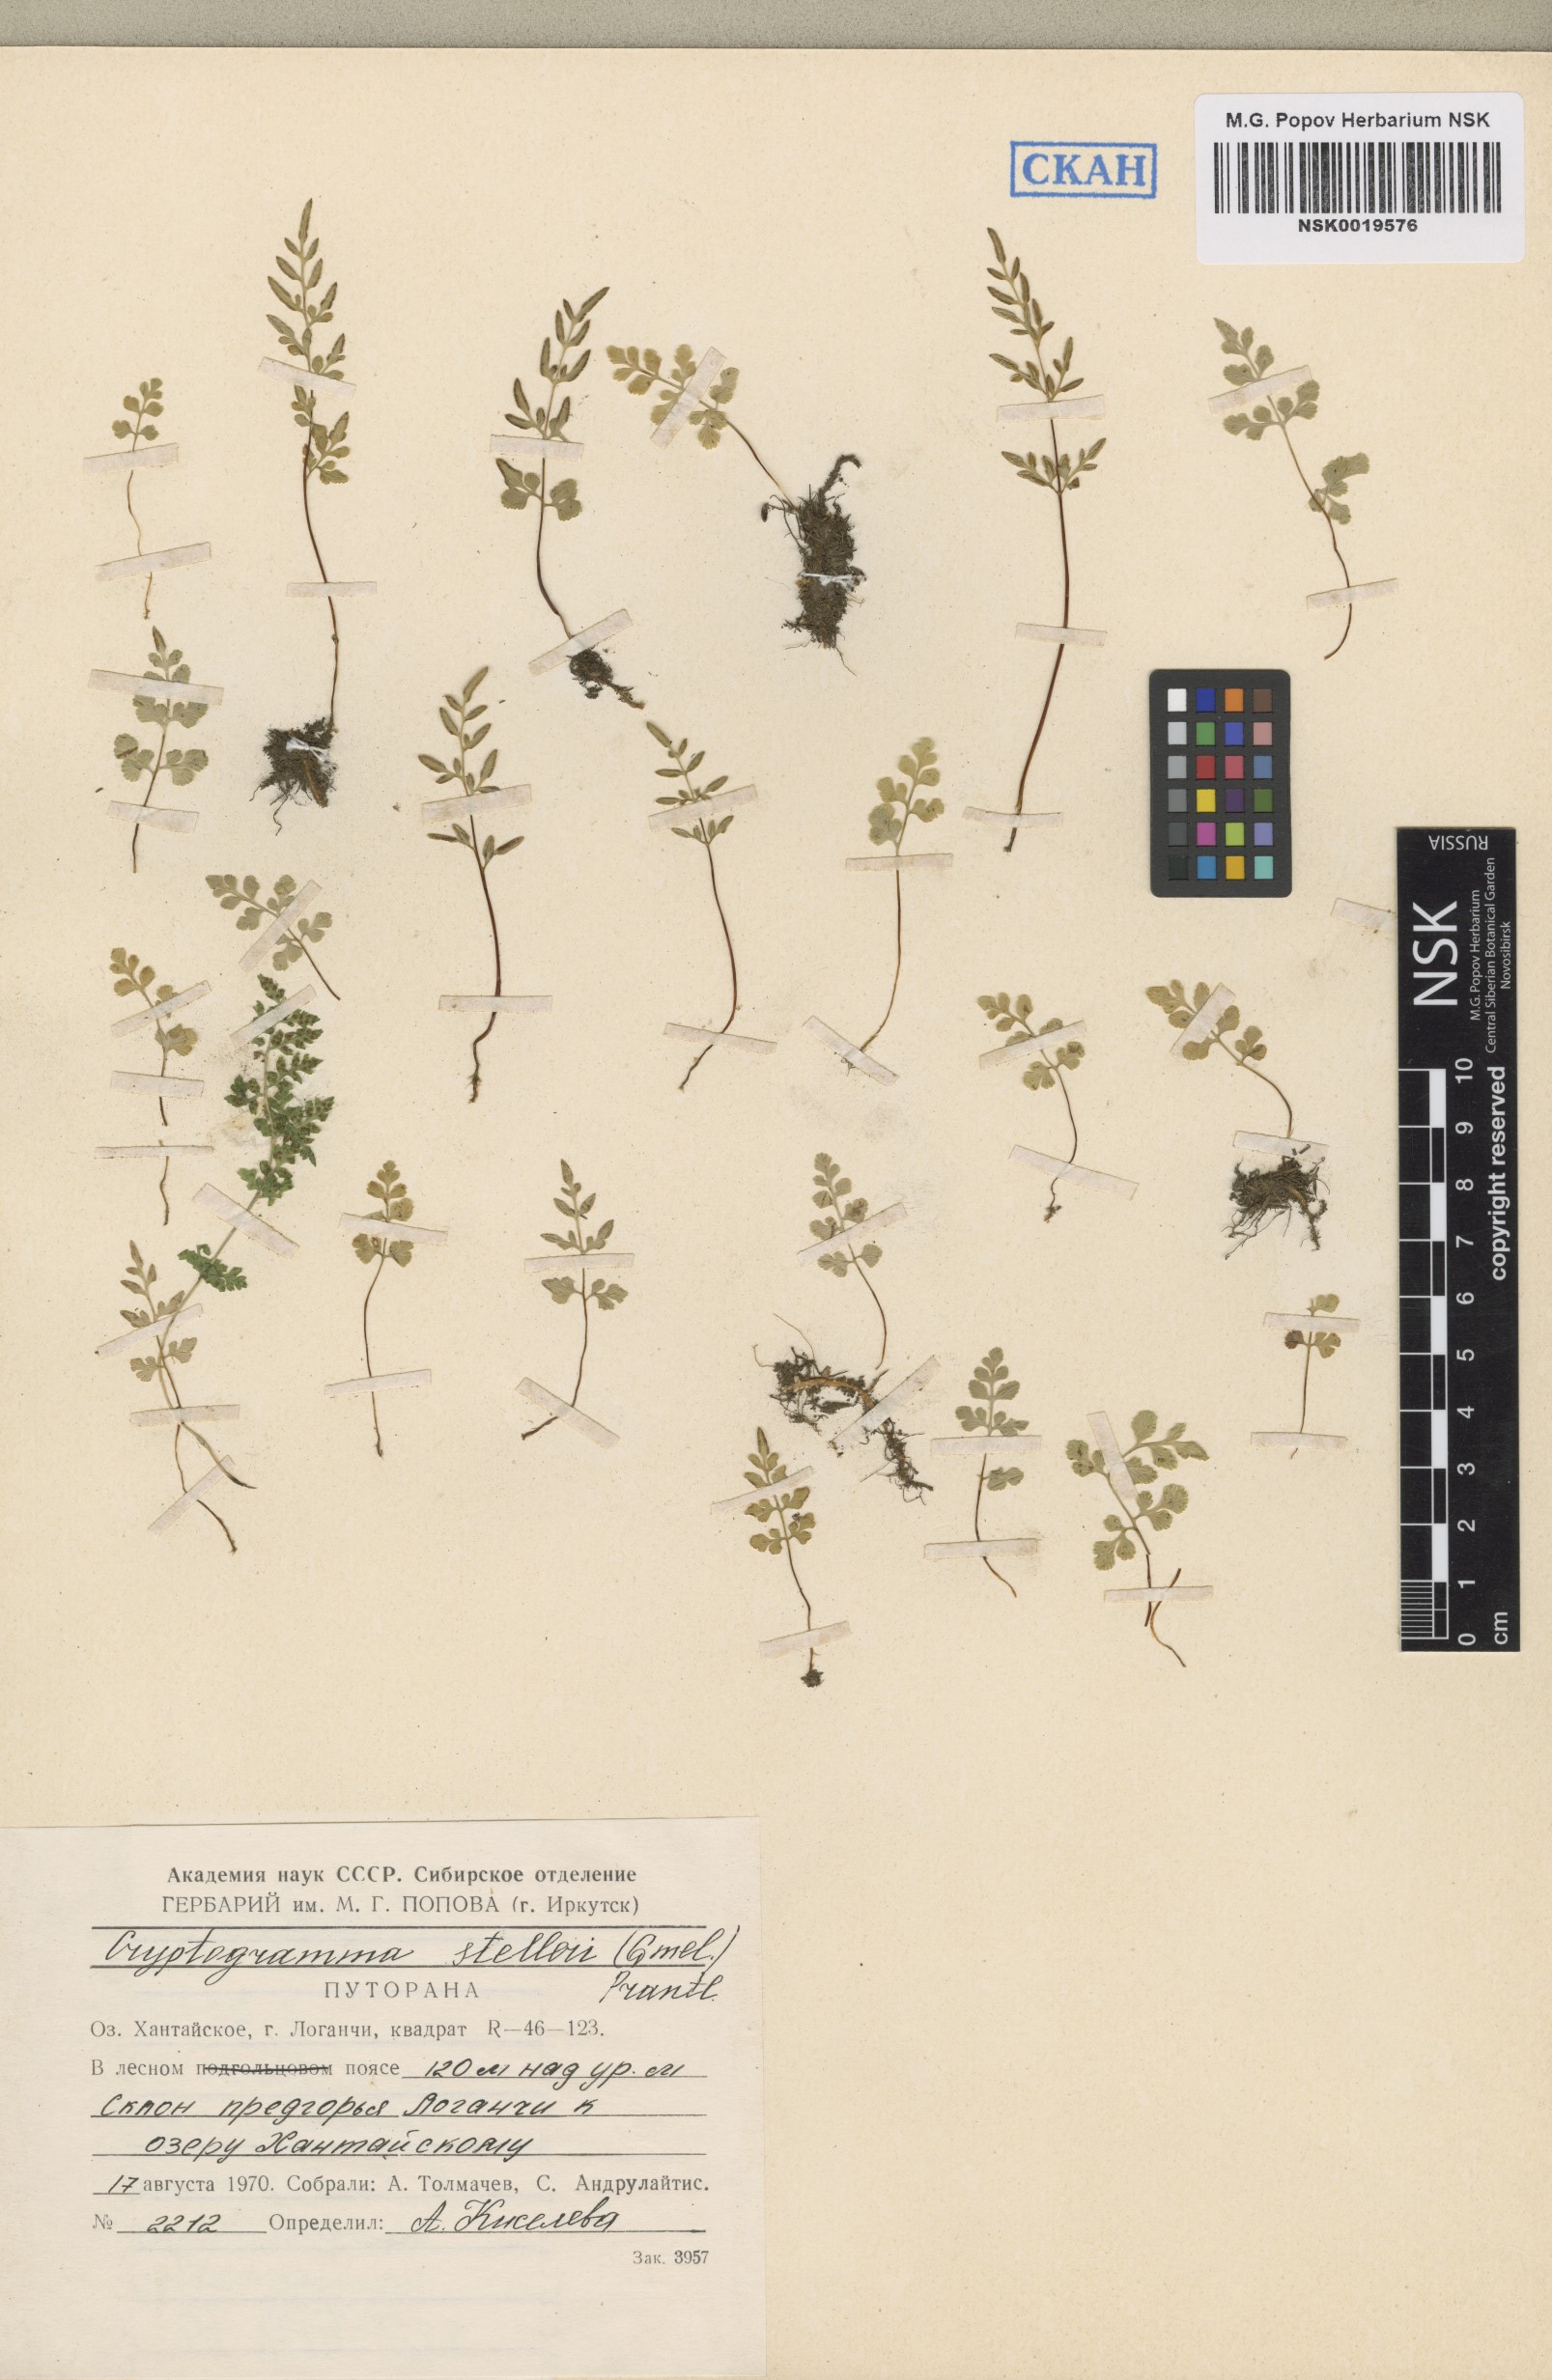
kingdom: Plantae
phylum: Tracheophyta
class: Polypodiopsida
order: Polypodiales
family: Pteridaceae
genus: Cryptogramma
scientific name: Cryptogramma stelleri
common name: Cliff-brake
